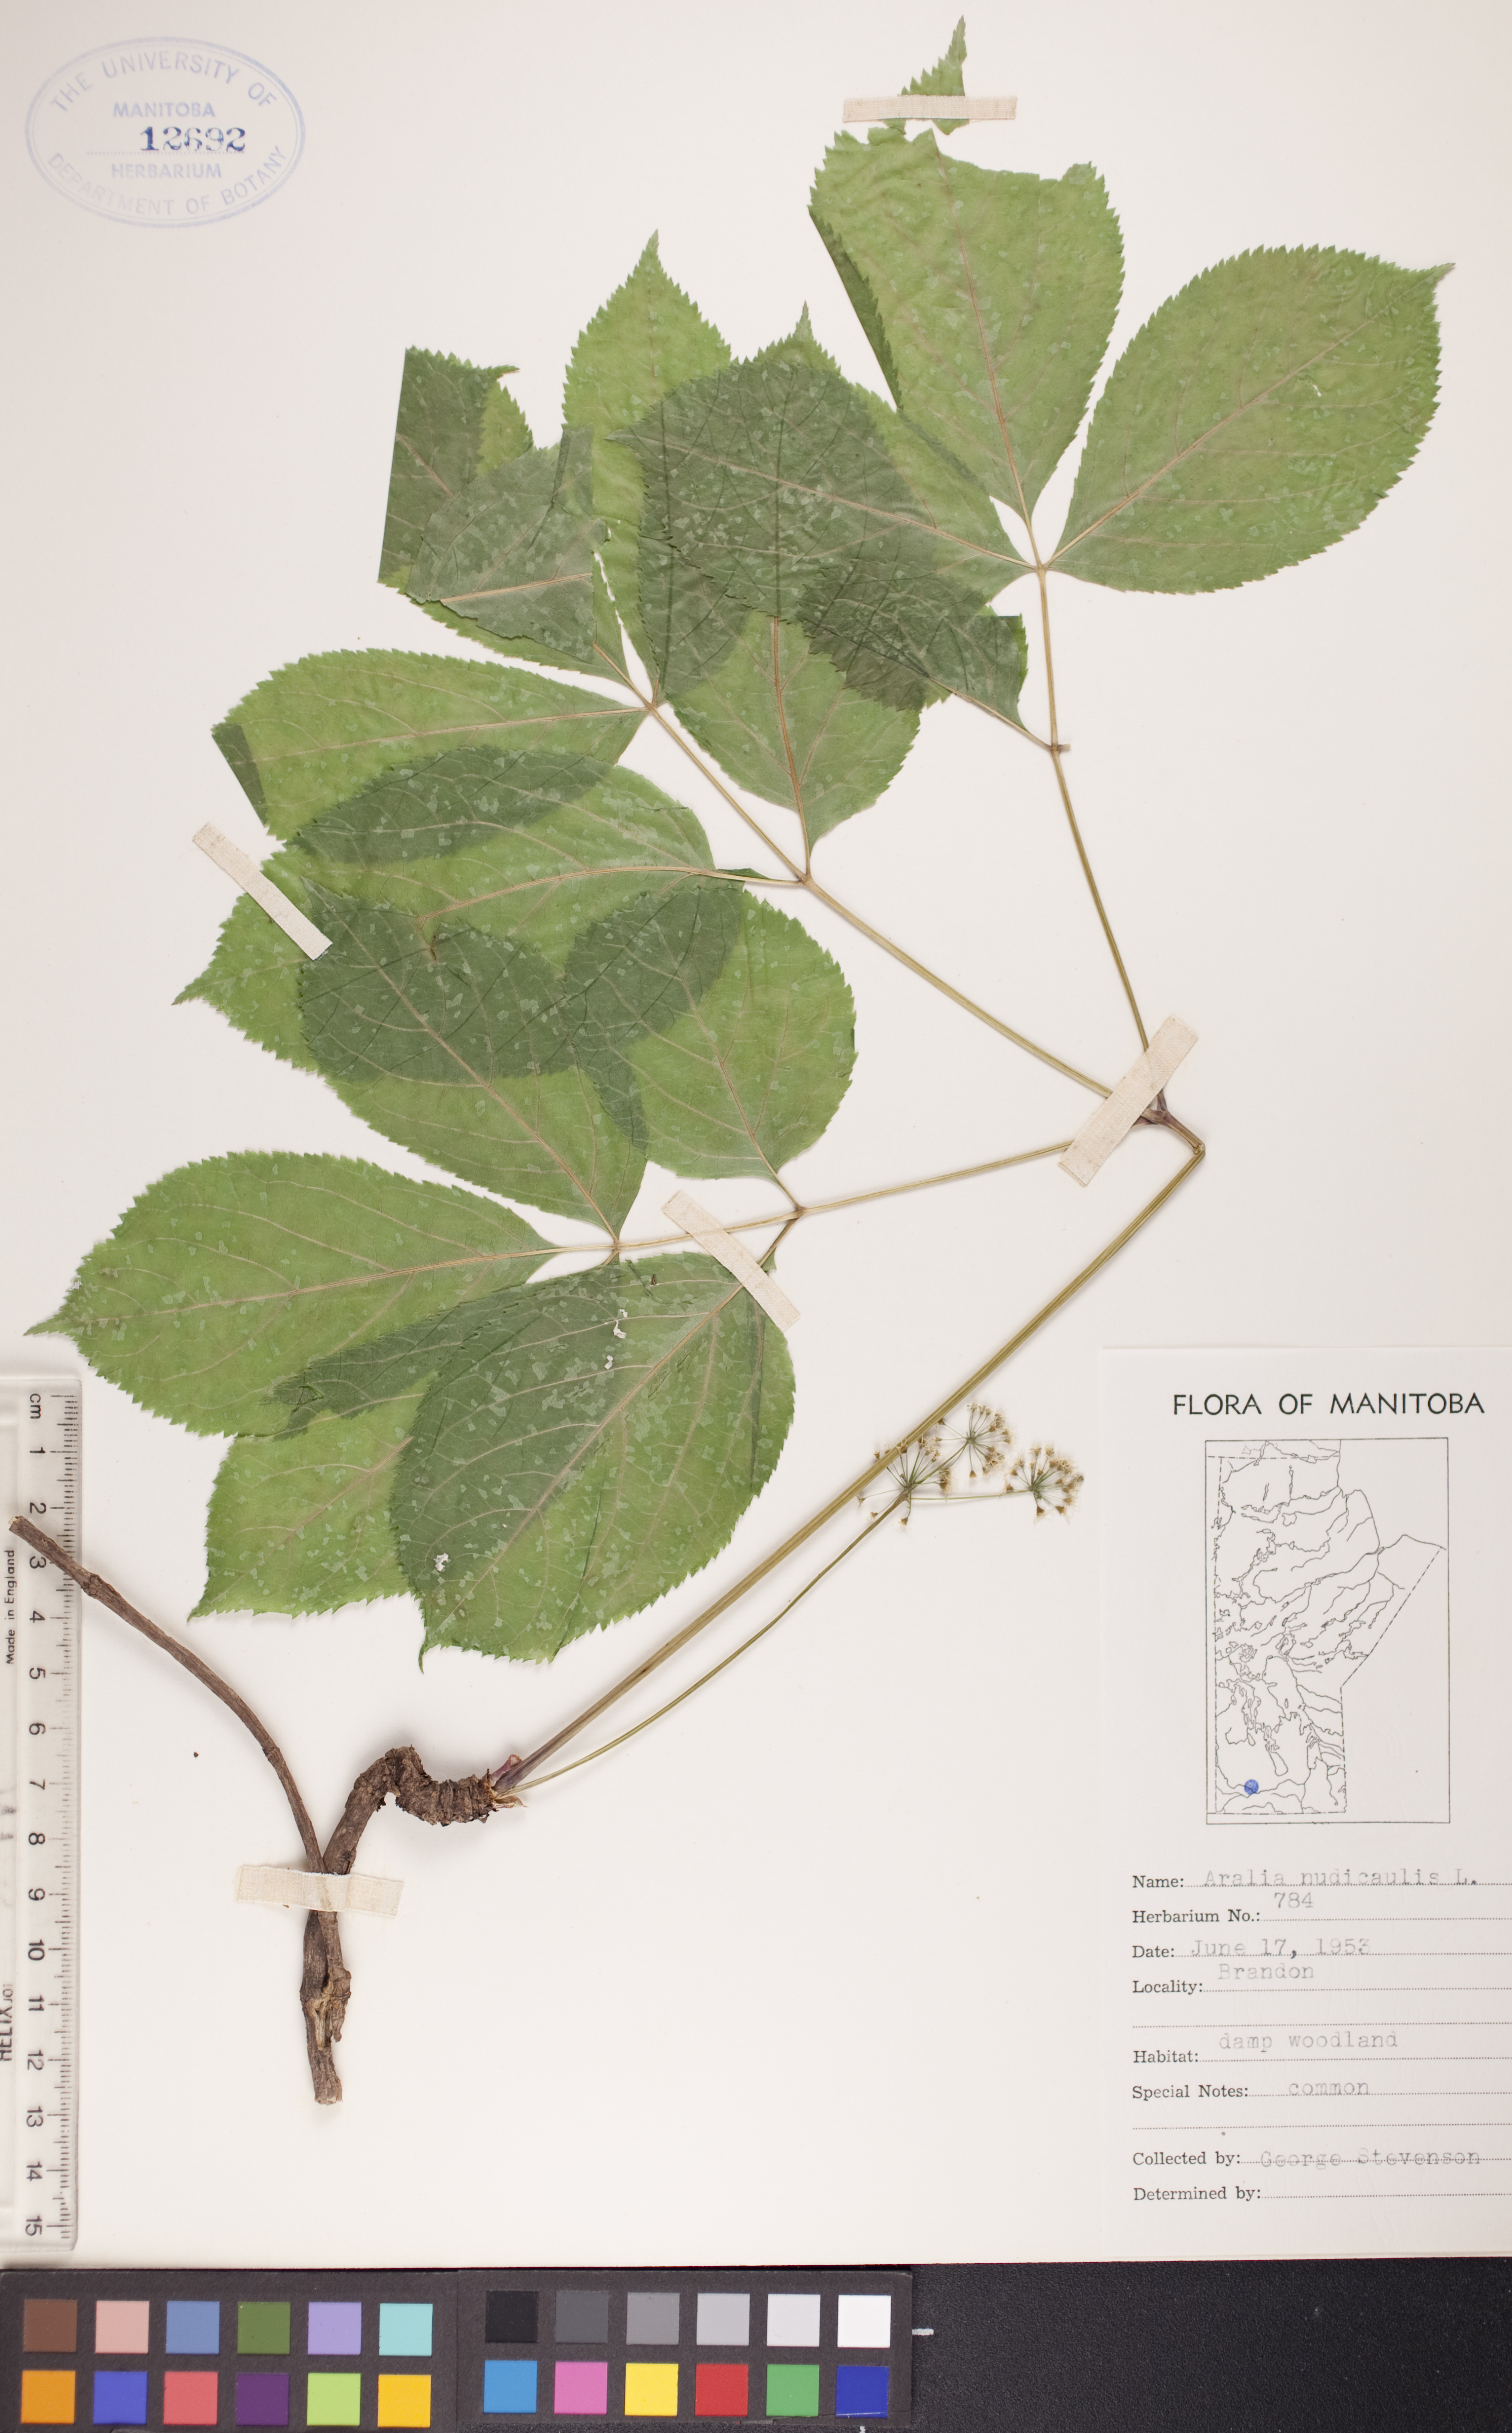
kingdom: Plantae
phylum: Tracheophyta
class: Magnoliopsida
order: Apiales
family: Araliaceae
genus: Aralia
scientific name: Aralia nudicaulis
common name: Wild sarsaparilla
